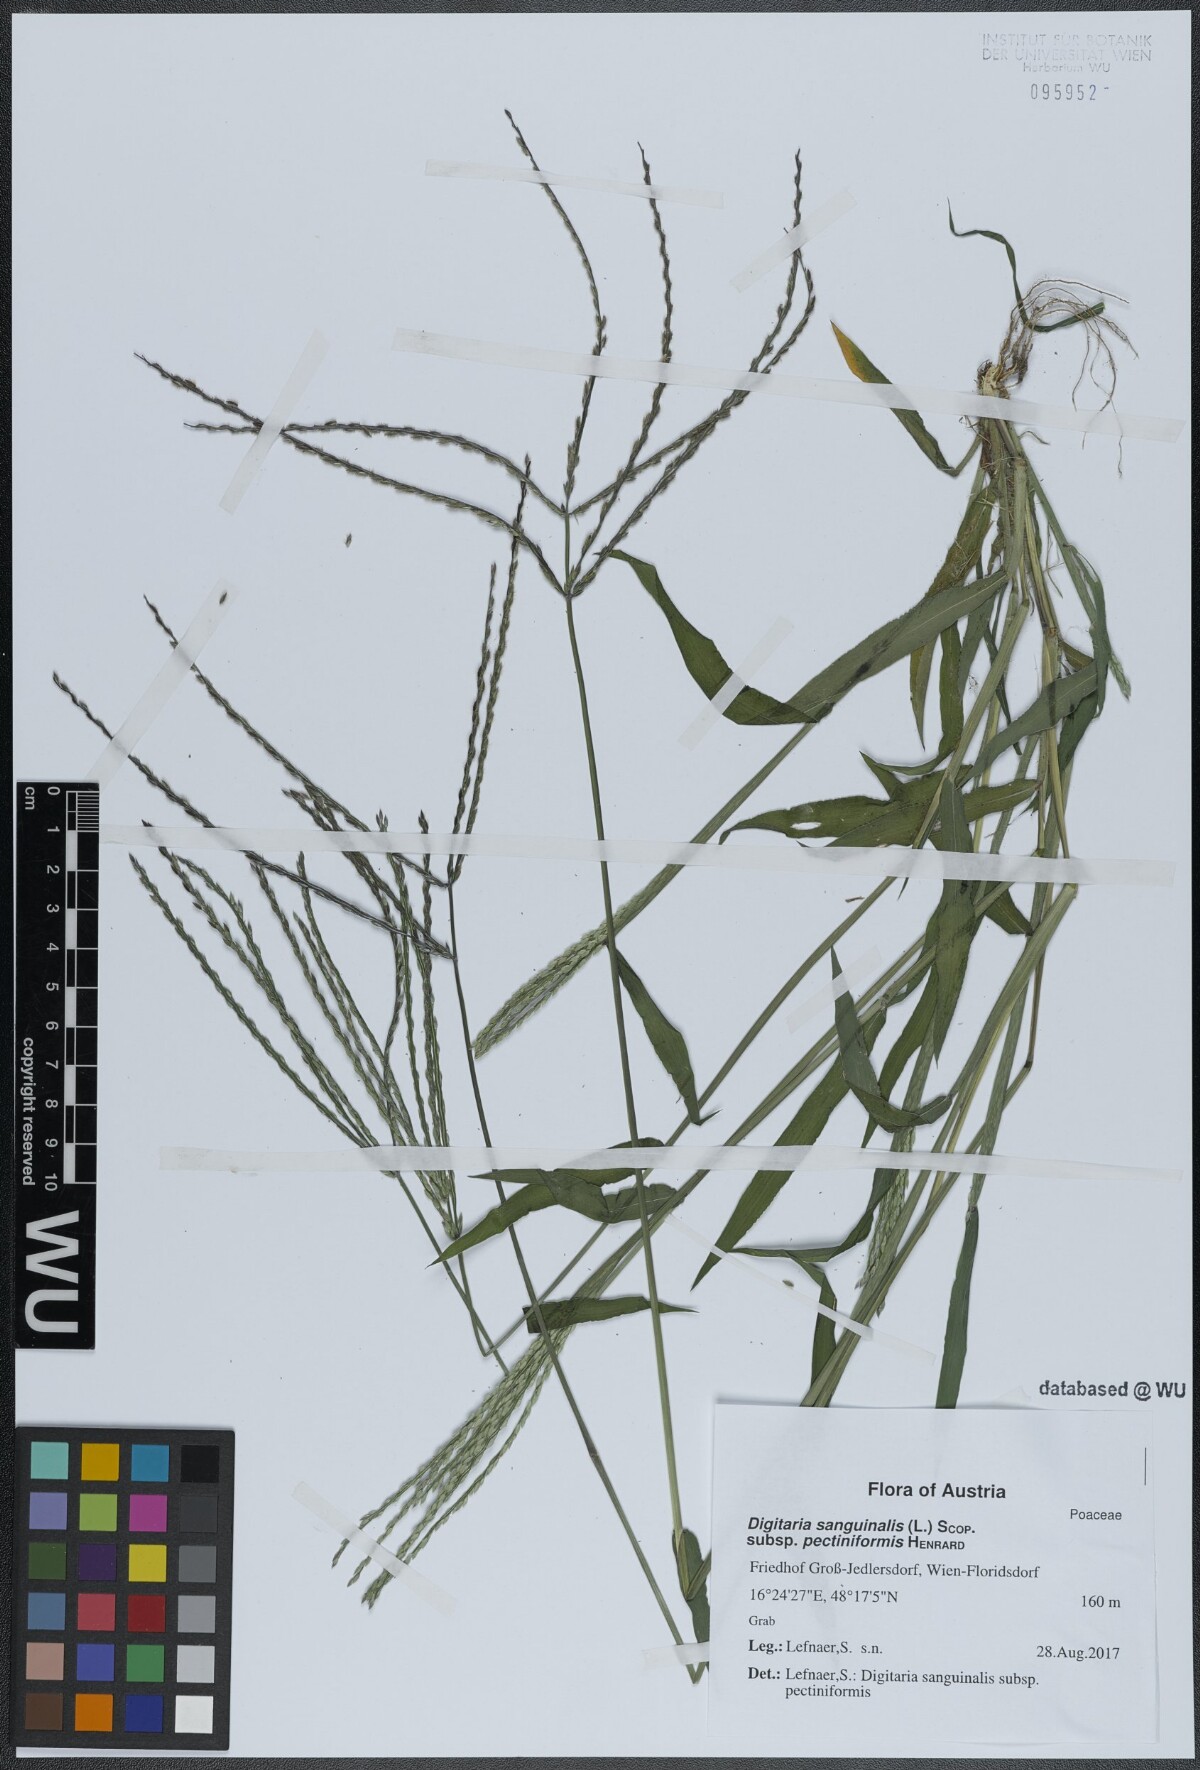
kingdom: Plantae
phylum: Tracheophyta
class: Liliopsida
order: Poales
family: Poaceae
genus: Digitaria
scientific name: Digitaria sanguinalis
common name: Hairy crabgrass
